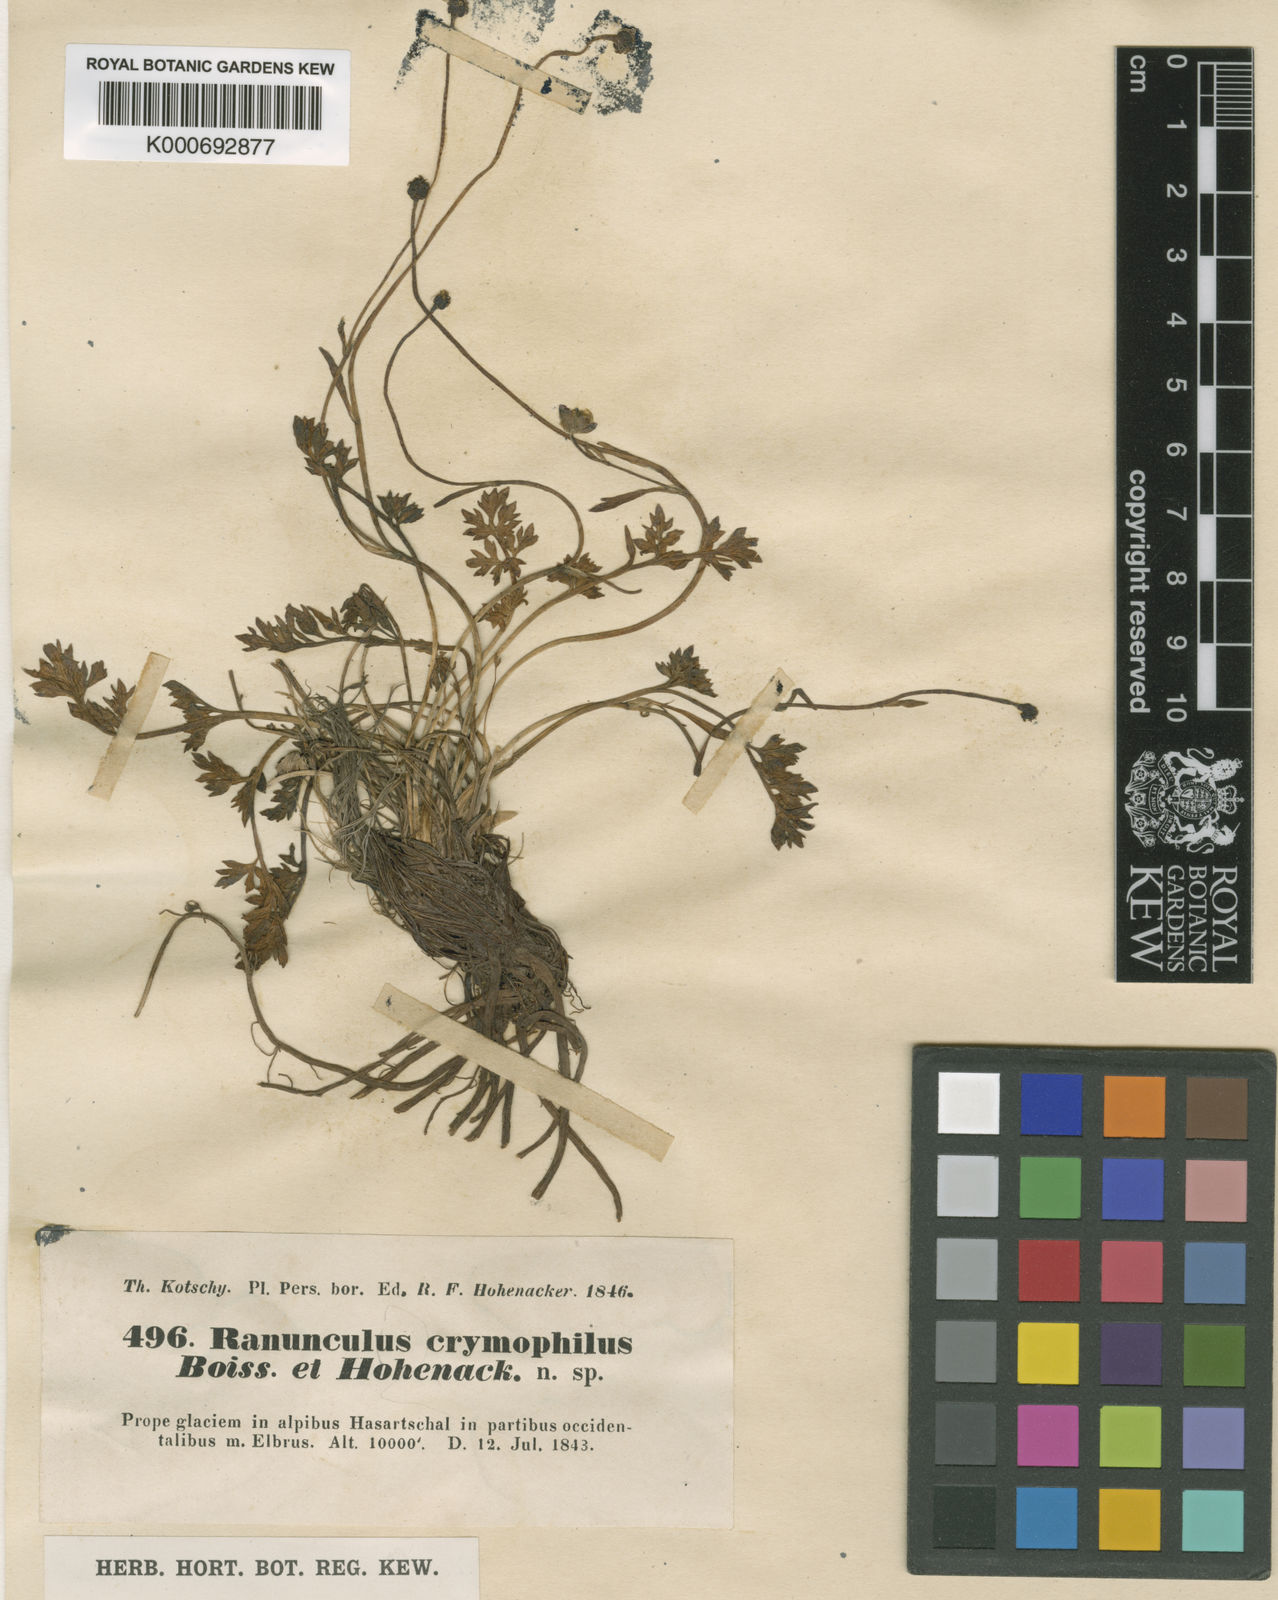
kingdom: Plantae
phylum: Tracheophyta
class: Magnoliopsida
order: Ranunculales
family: Ranunculaceae
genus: Ranunculus
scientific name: Ranunculus crymophilus
